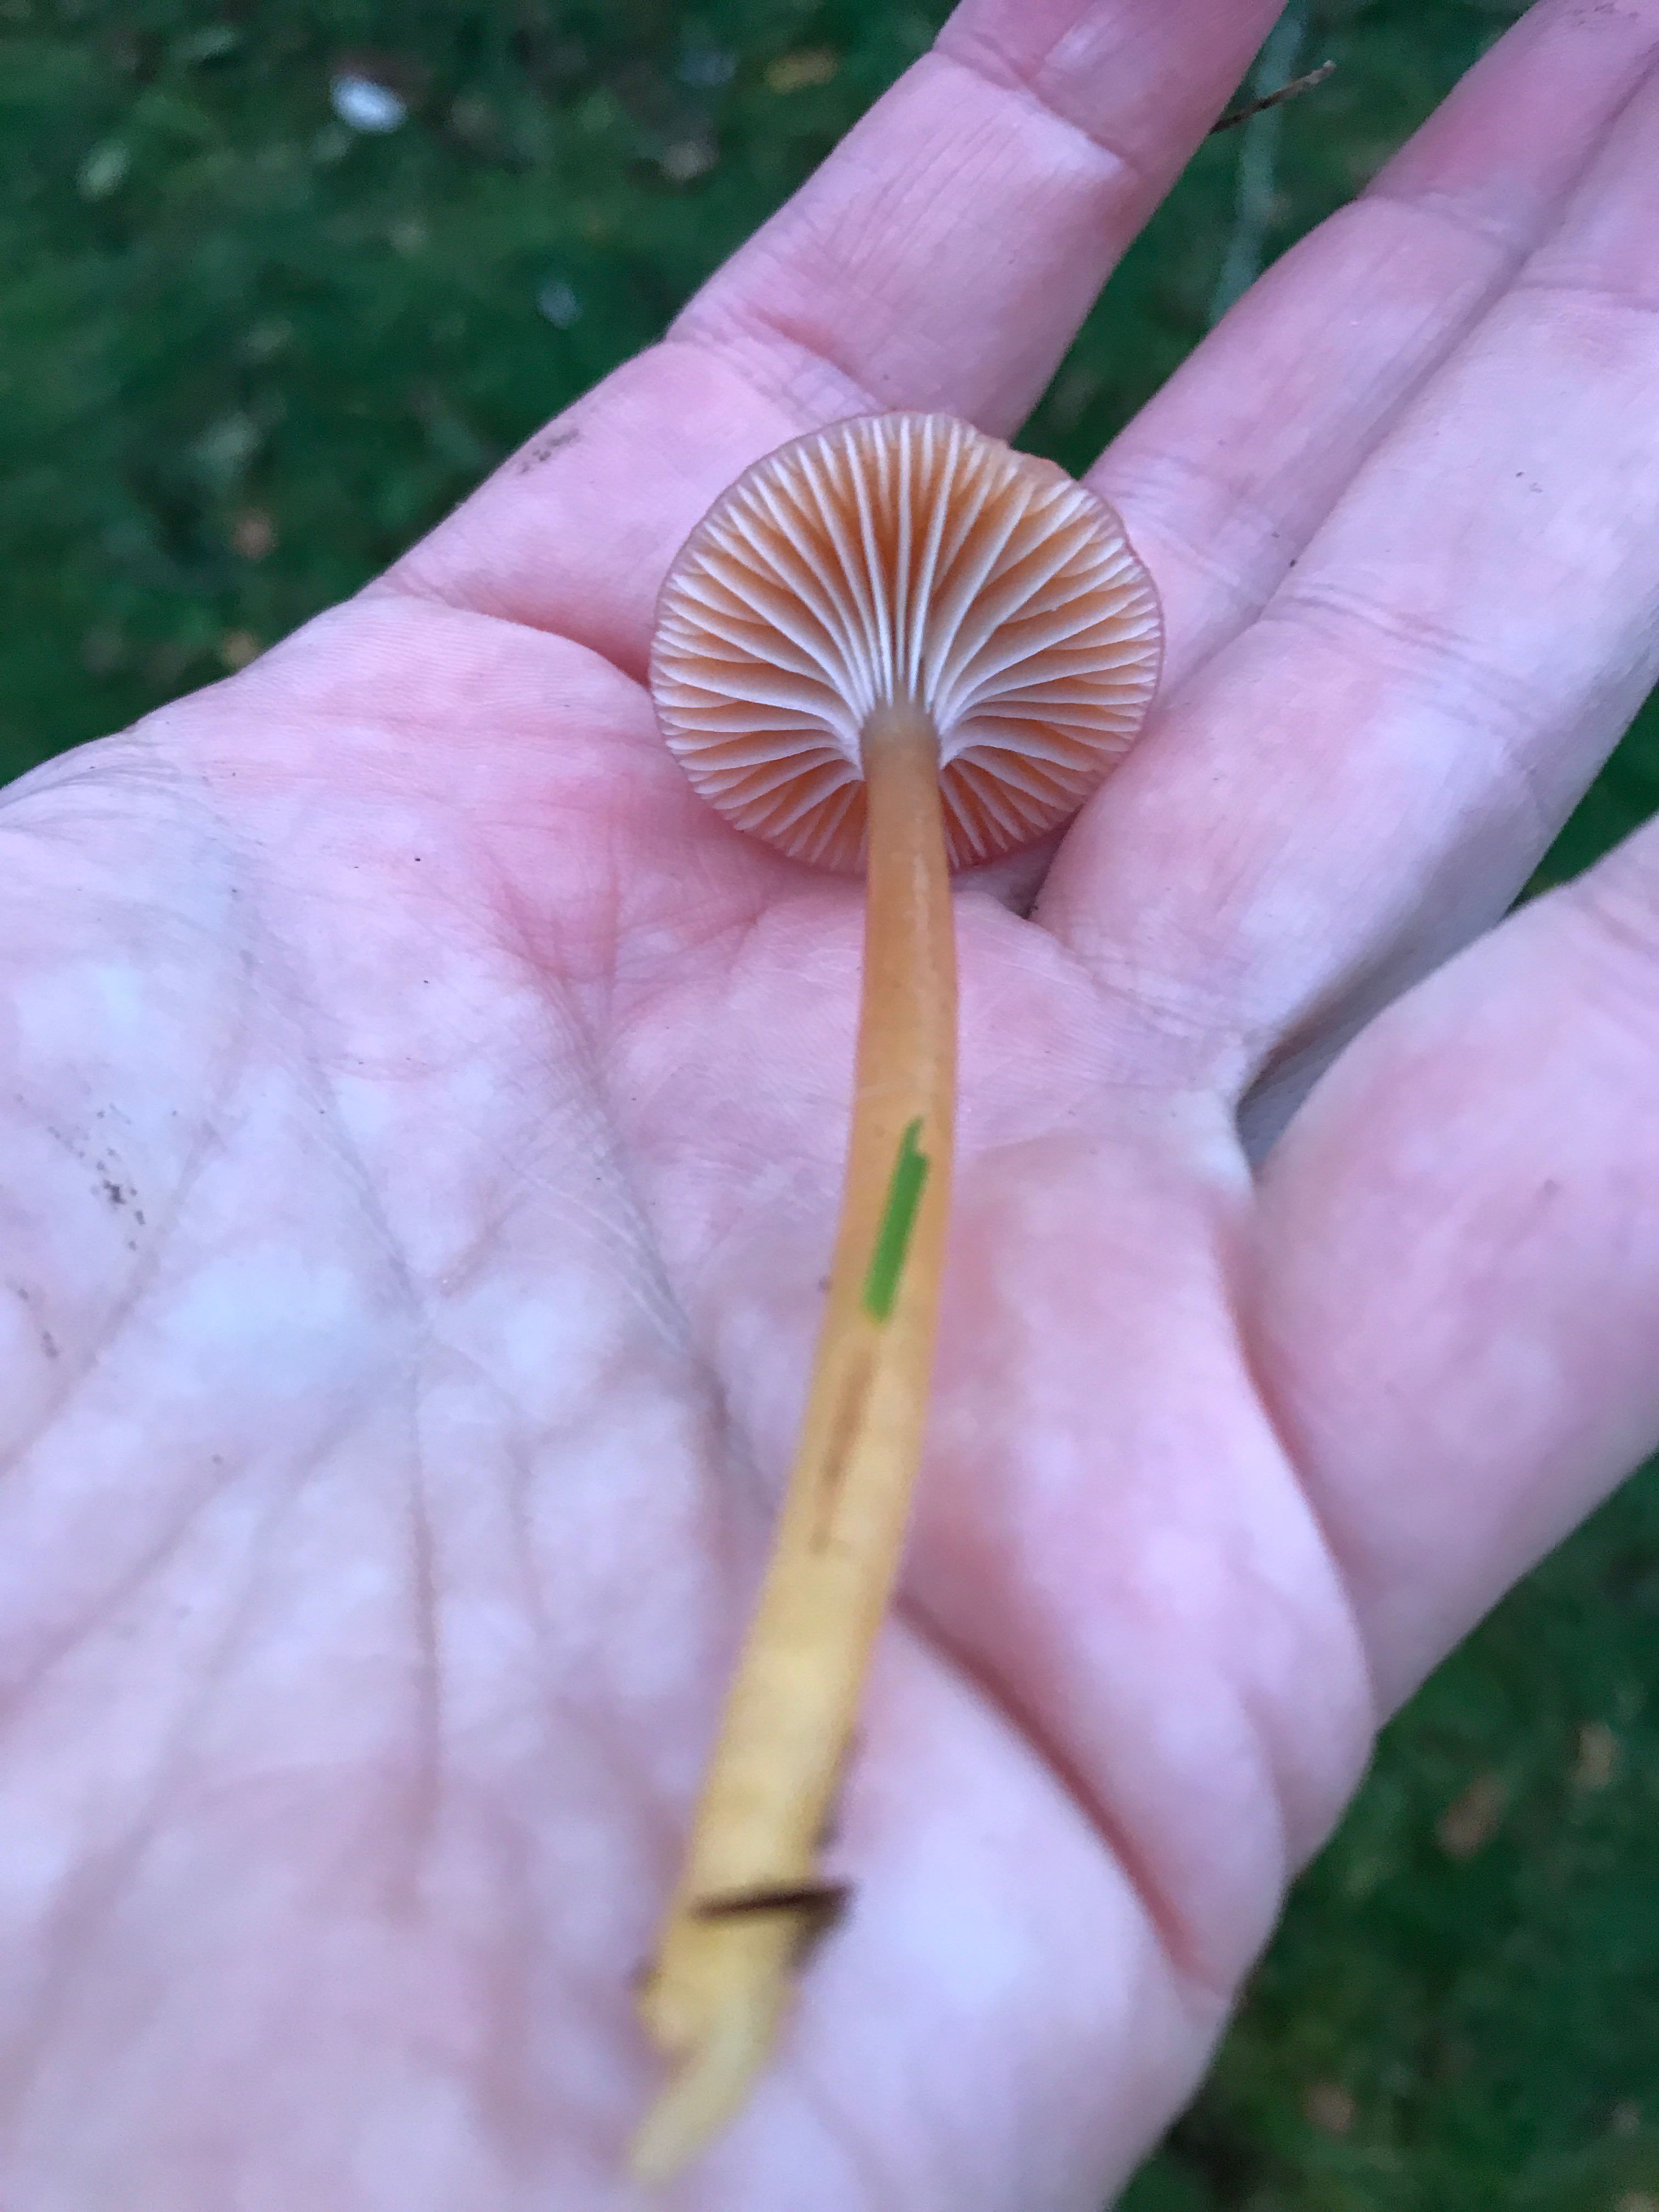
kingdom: Fungi
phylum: Basidiomycota
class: Agaricomycetes
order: Agaricales
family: Hygrophoraceae
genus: Gliophorus
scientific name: Gliophorus laetus
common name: brusk-vokshat
